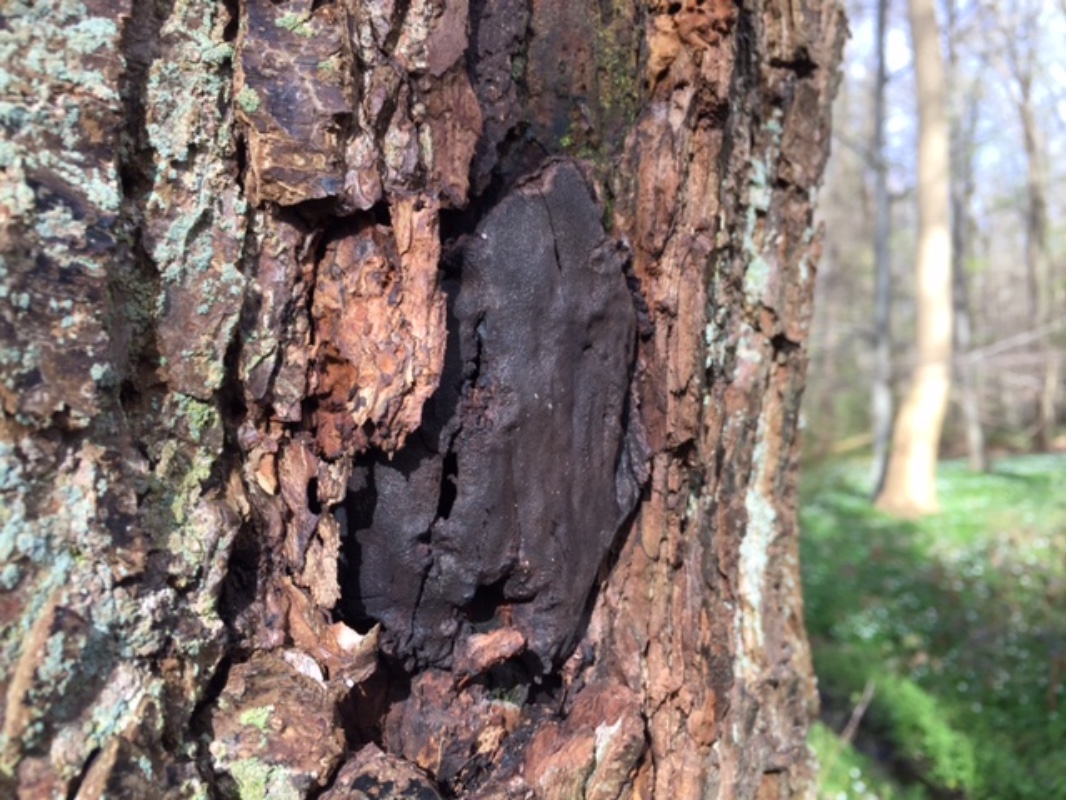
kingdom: Fungi
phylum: Ascomycota
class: Sordariomycetes
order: Boliniales
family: Boliniaceae
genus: Camarops
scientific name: Camarops polysperma
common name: elle-kulsnegl
